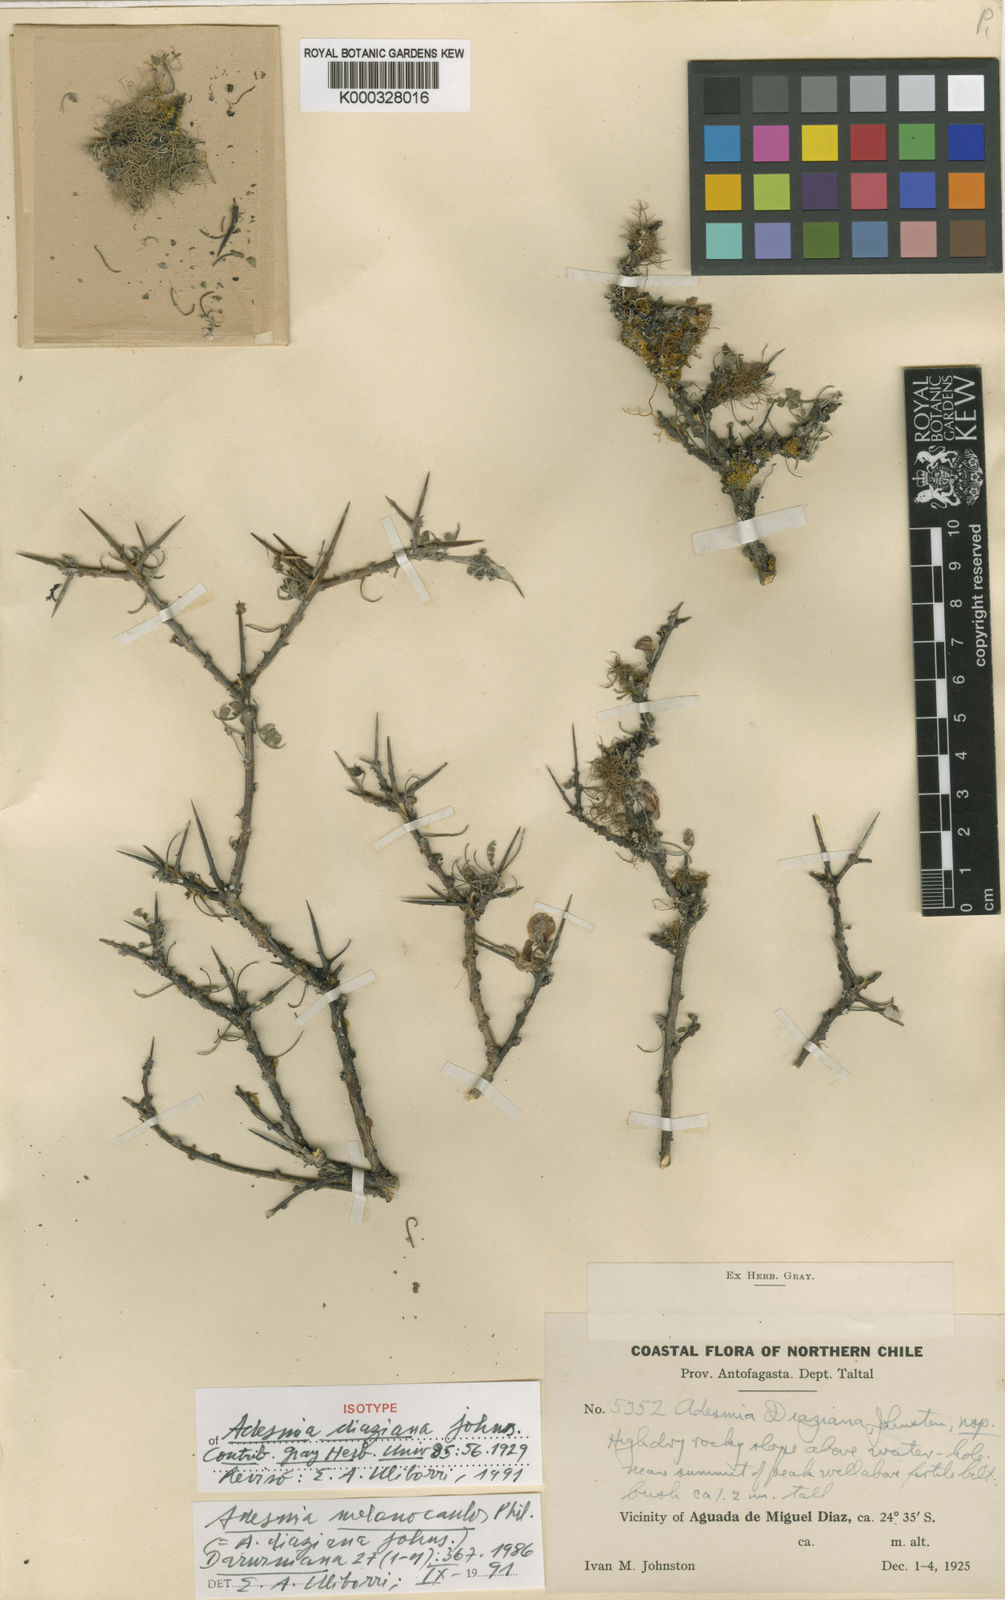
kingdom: Plantae
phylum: Tracheophyta
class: Magnoliopsida
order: Fabales
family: Fabaceae
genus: Adesmia
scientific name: Adesmia melanocaulos
